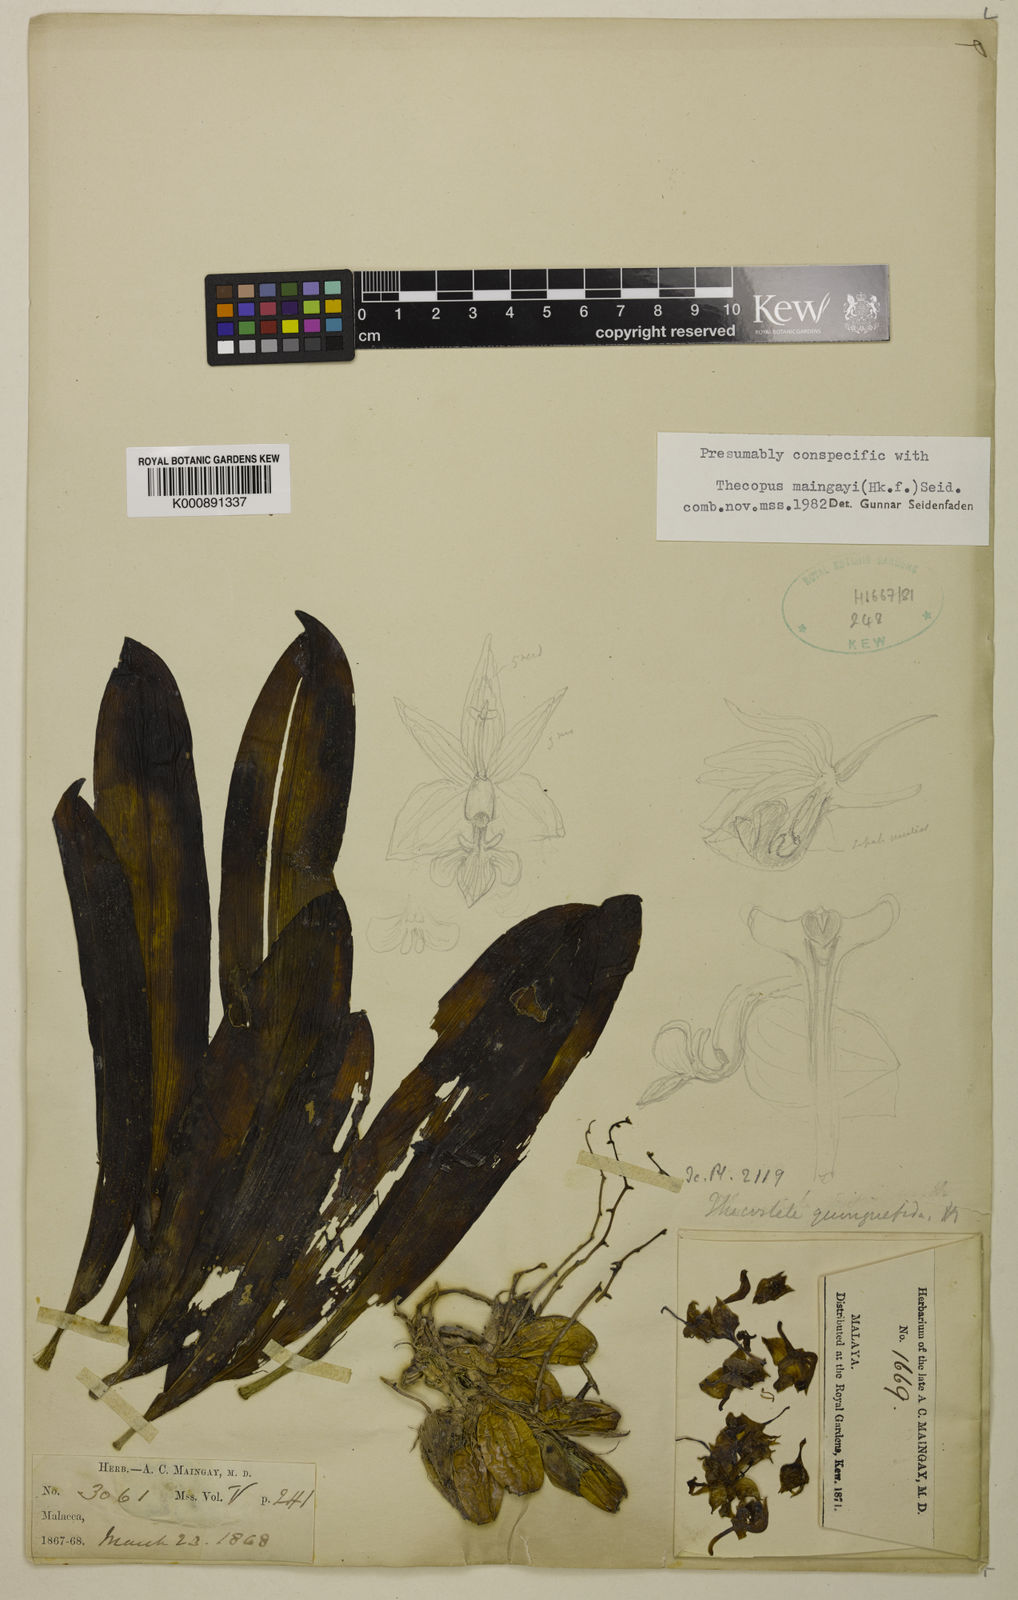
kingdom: Plantae
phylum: Tracheophyta
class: Liliopsida
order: Asparagales
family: Orchidaceae
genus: Thecopus
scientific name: Thecopus maingayi
